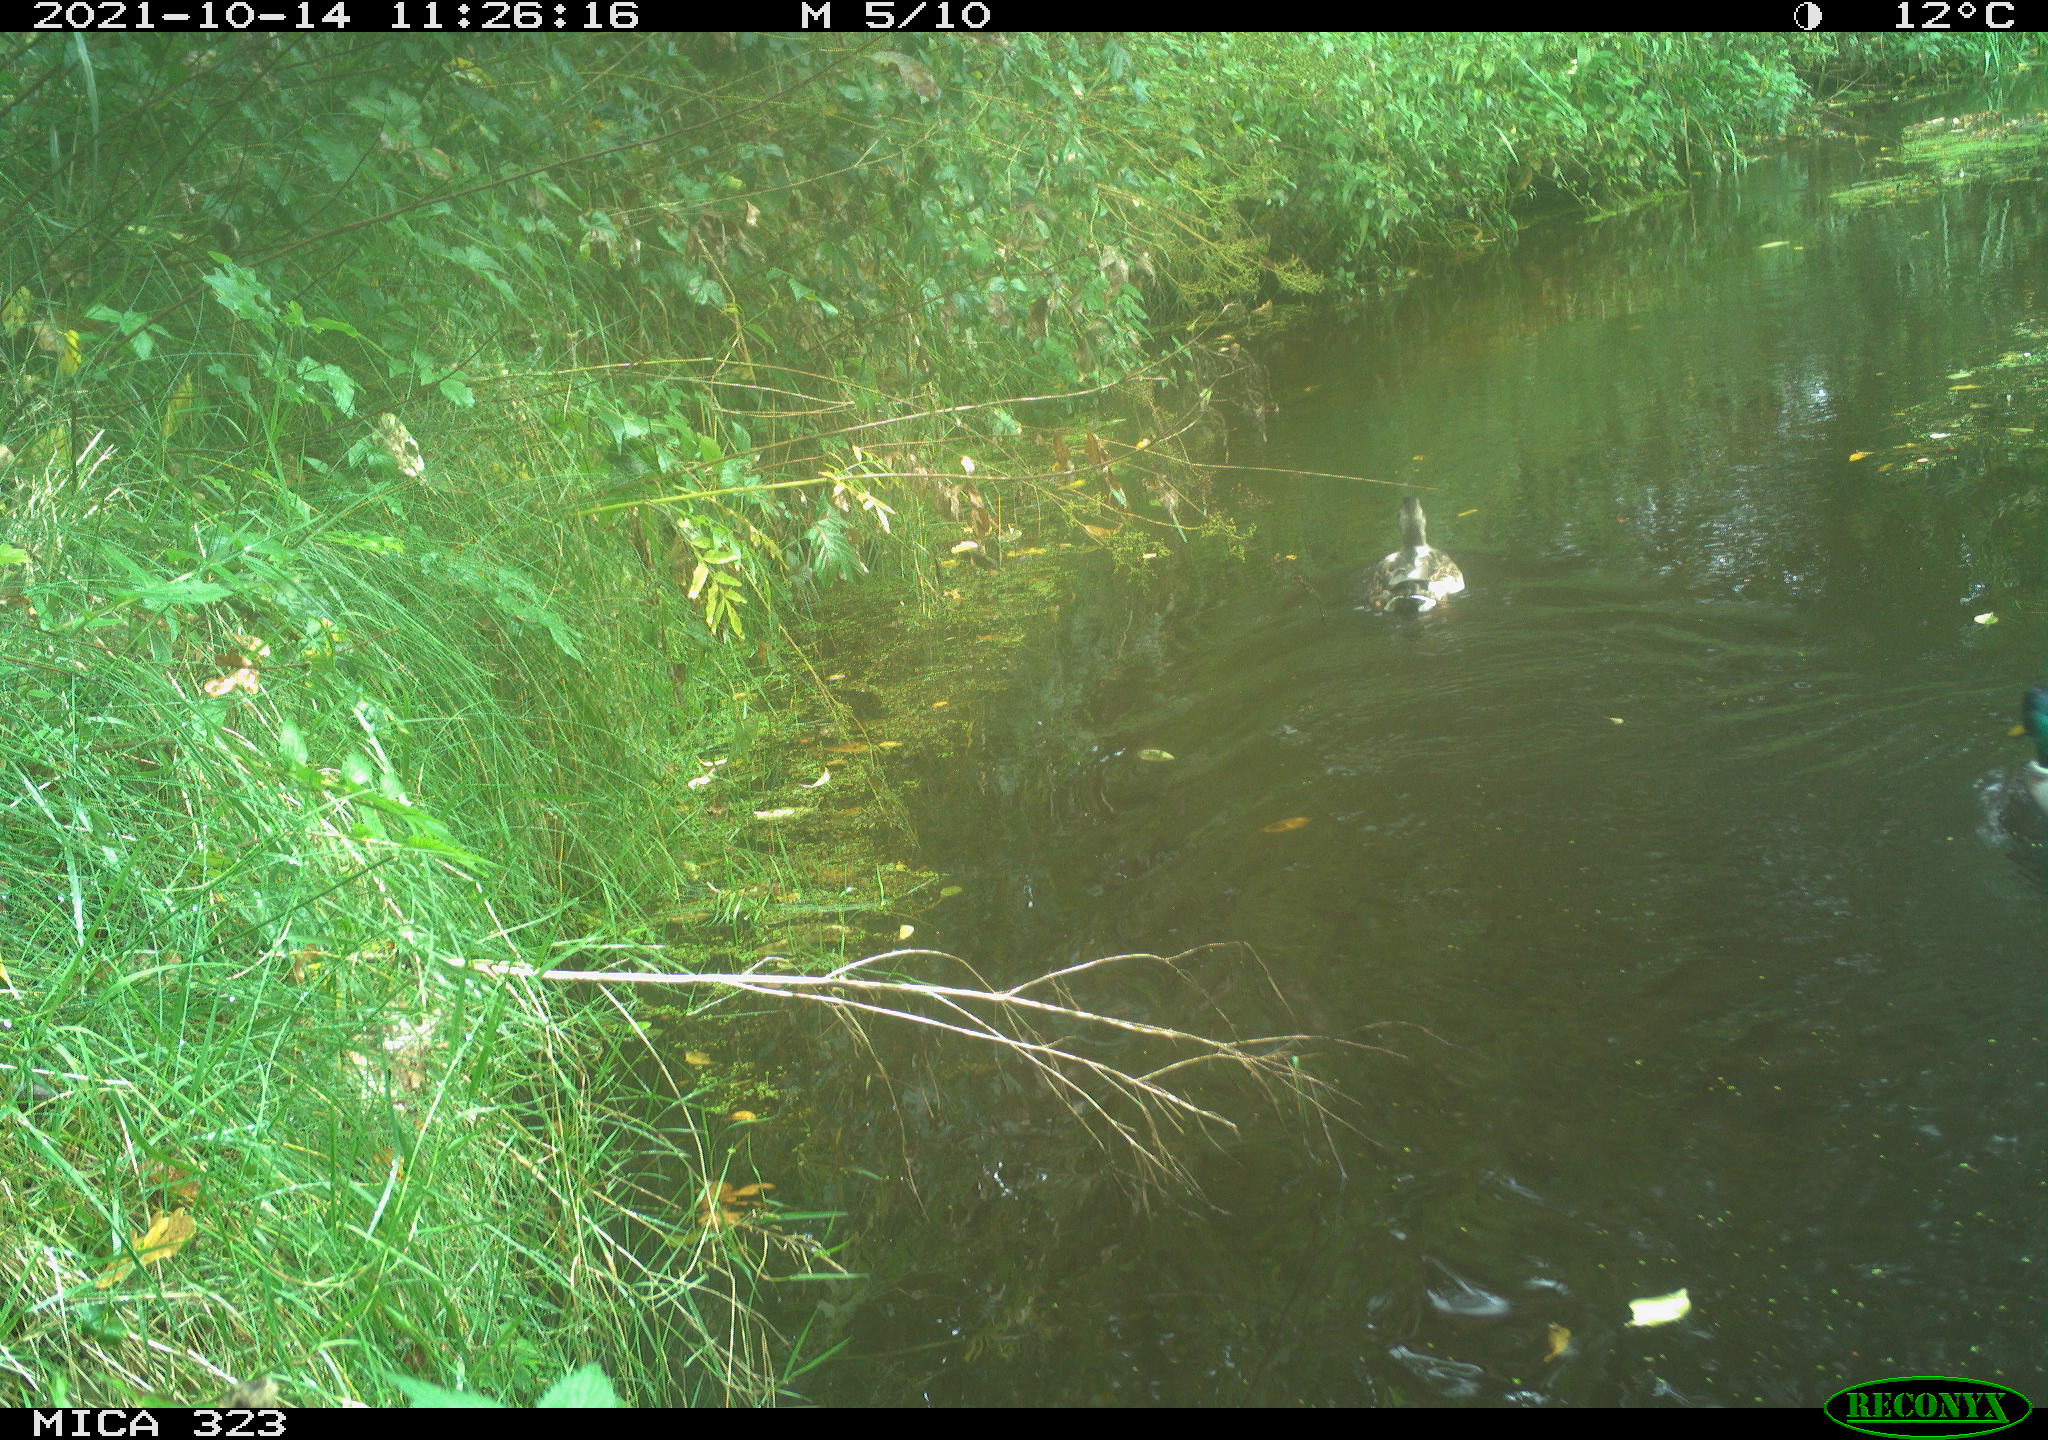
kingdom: Animalia
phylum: Chordata
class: Aves
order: Anseriformes
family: Anatidae
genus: Anas
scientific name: Anas platyrhynchos
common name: Mallard
